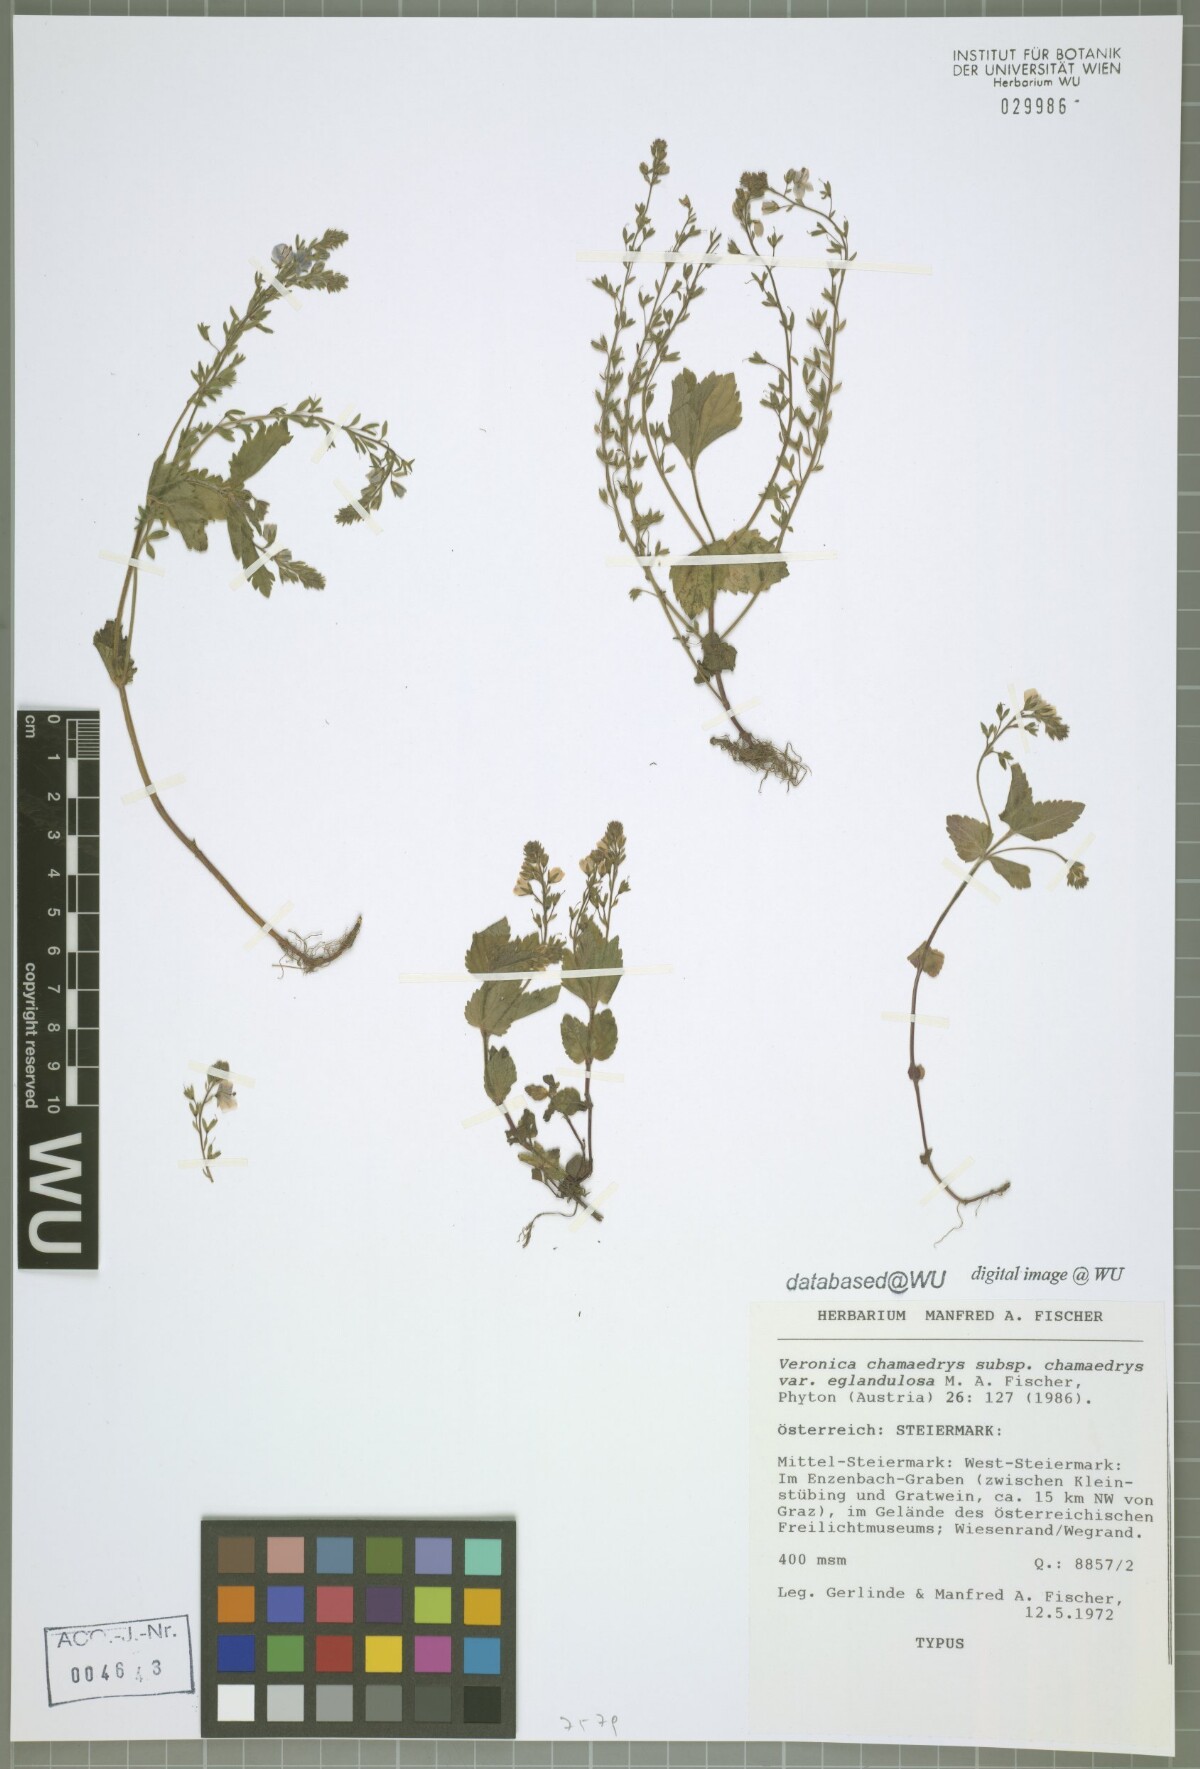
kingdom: Plantae
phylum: Tracheophyta
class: Magnoliopsida
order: Lamiales
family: Plantaginaceae
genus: Veronica
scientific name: Veronica chamaedrys
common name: Germander speedwell
